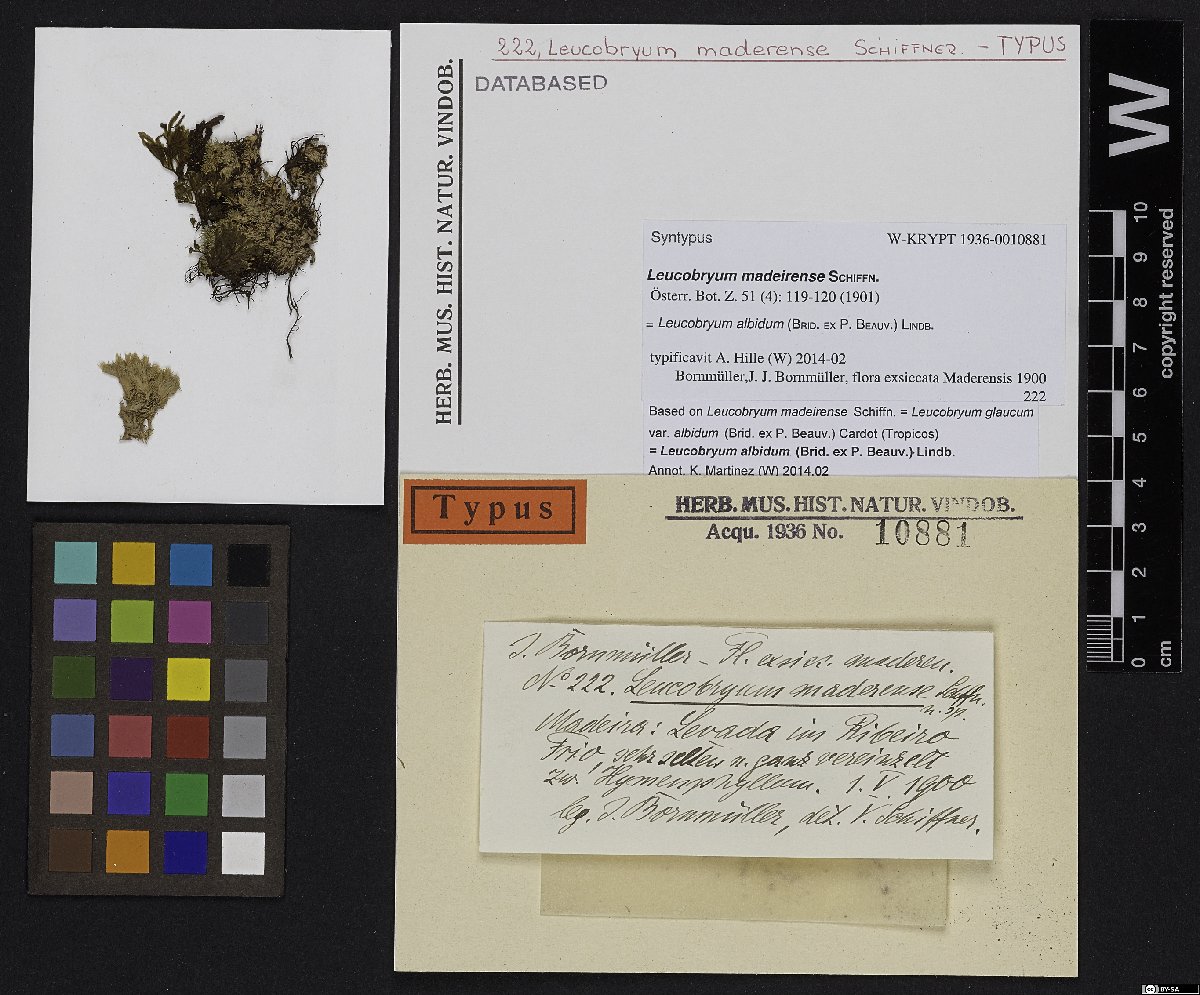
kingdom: Plantae
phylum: Bryophyta
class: Bryopsida
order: Dicranales
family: Leucobryaceae
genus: Leucobryum
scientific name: Leucobryum albidum
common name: White moss
